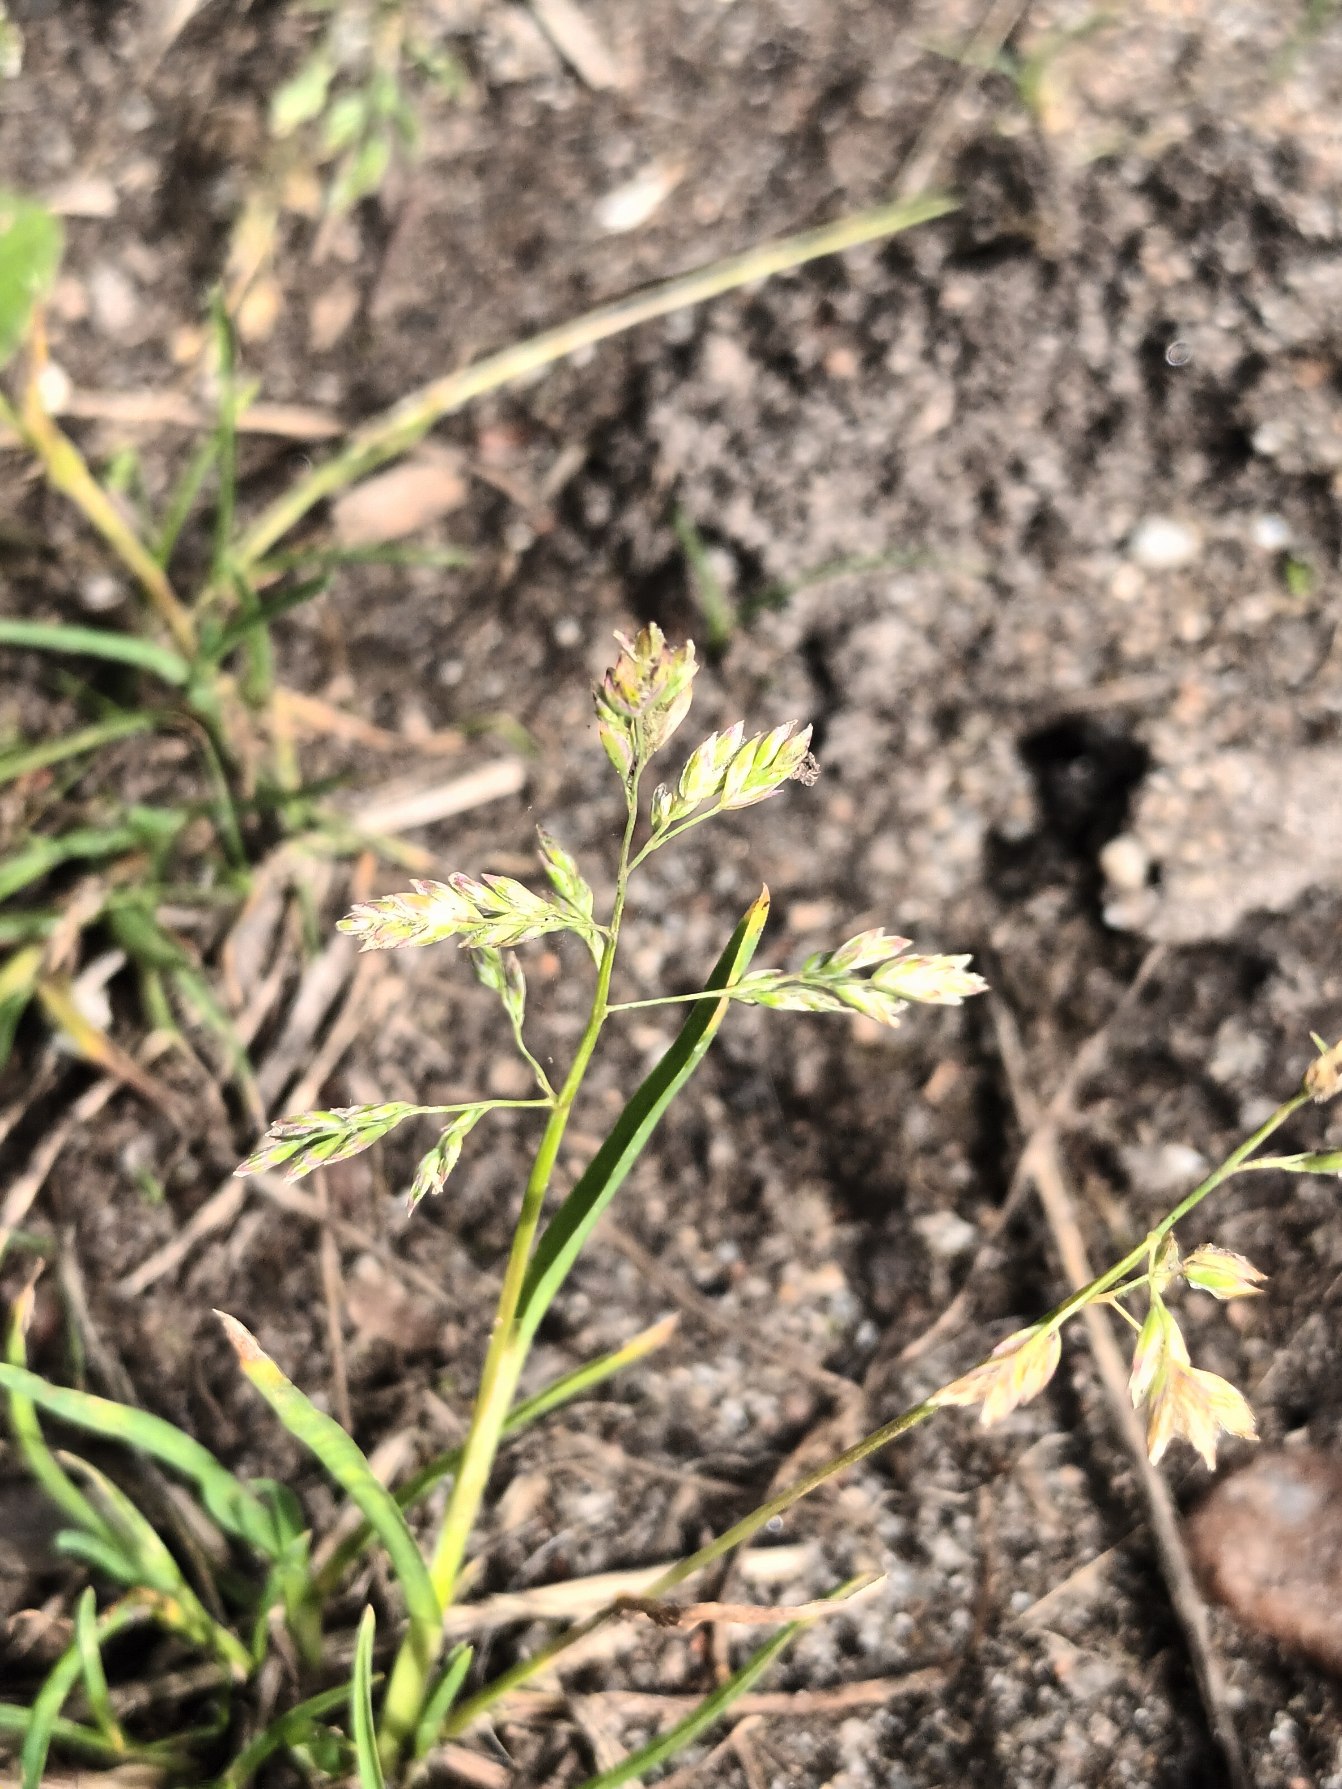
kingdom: Plantae
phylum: Tracheophyta
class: Liliopsida
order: Poales
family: Poaceae
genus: Poa
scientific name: Poa annua
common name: Enårig rapgræs
